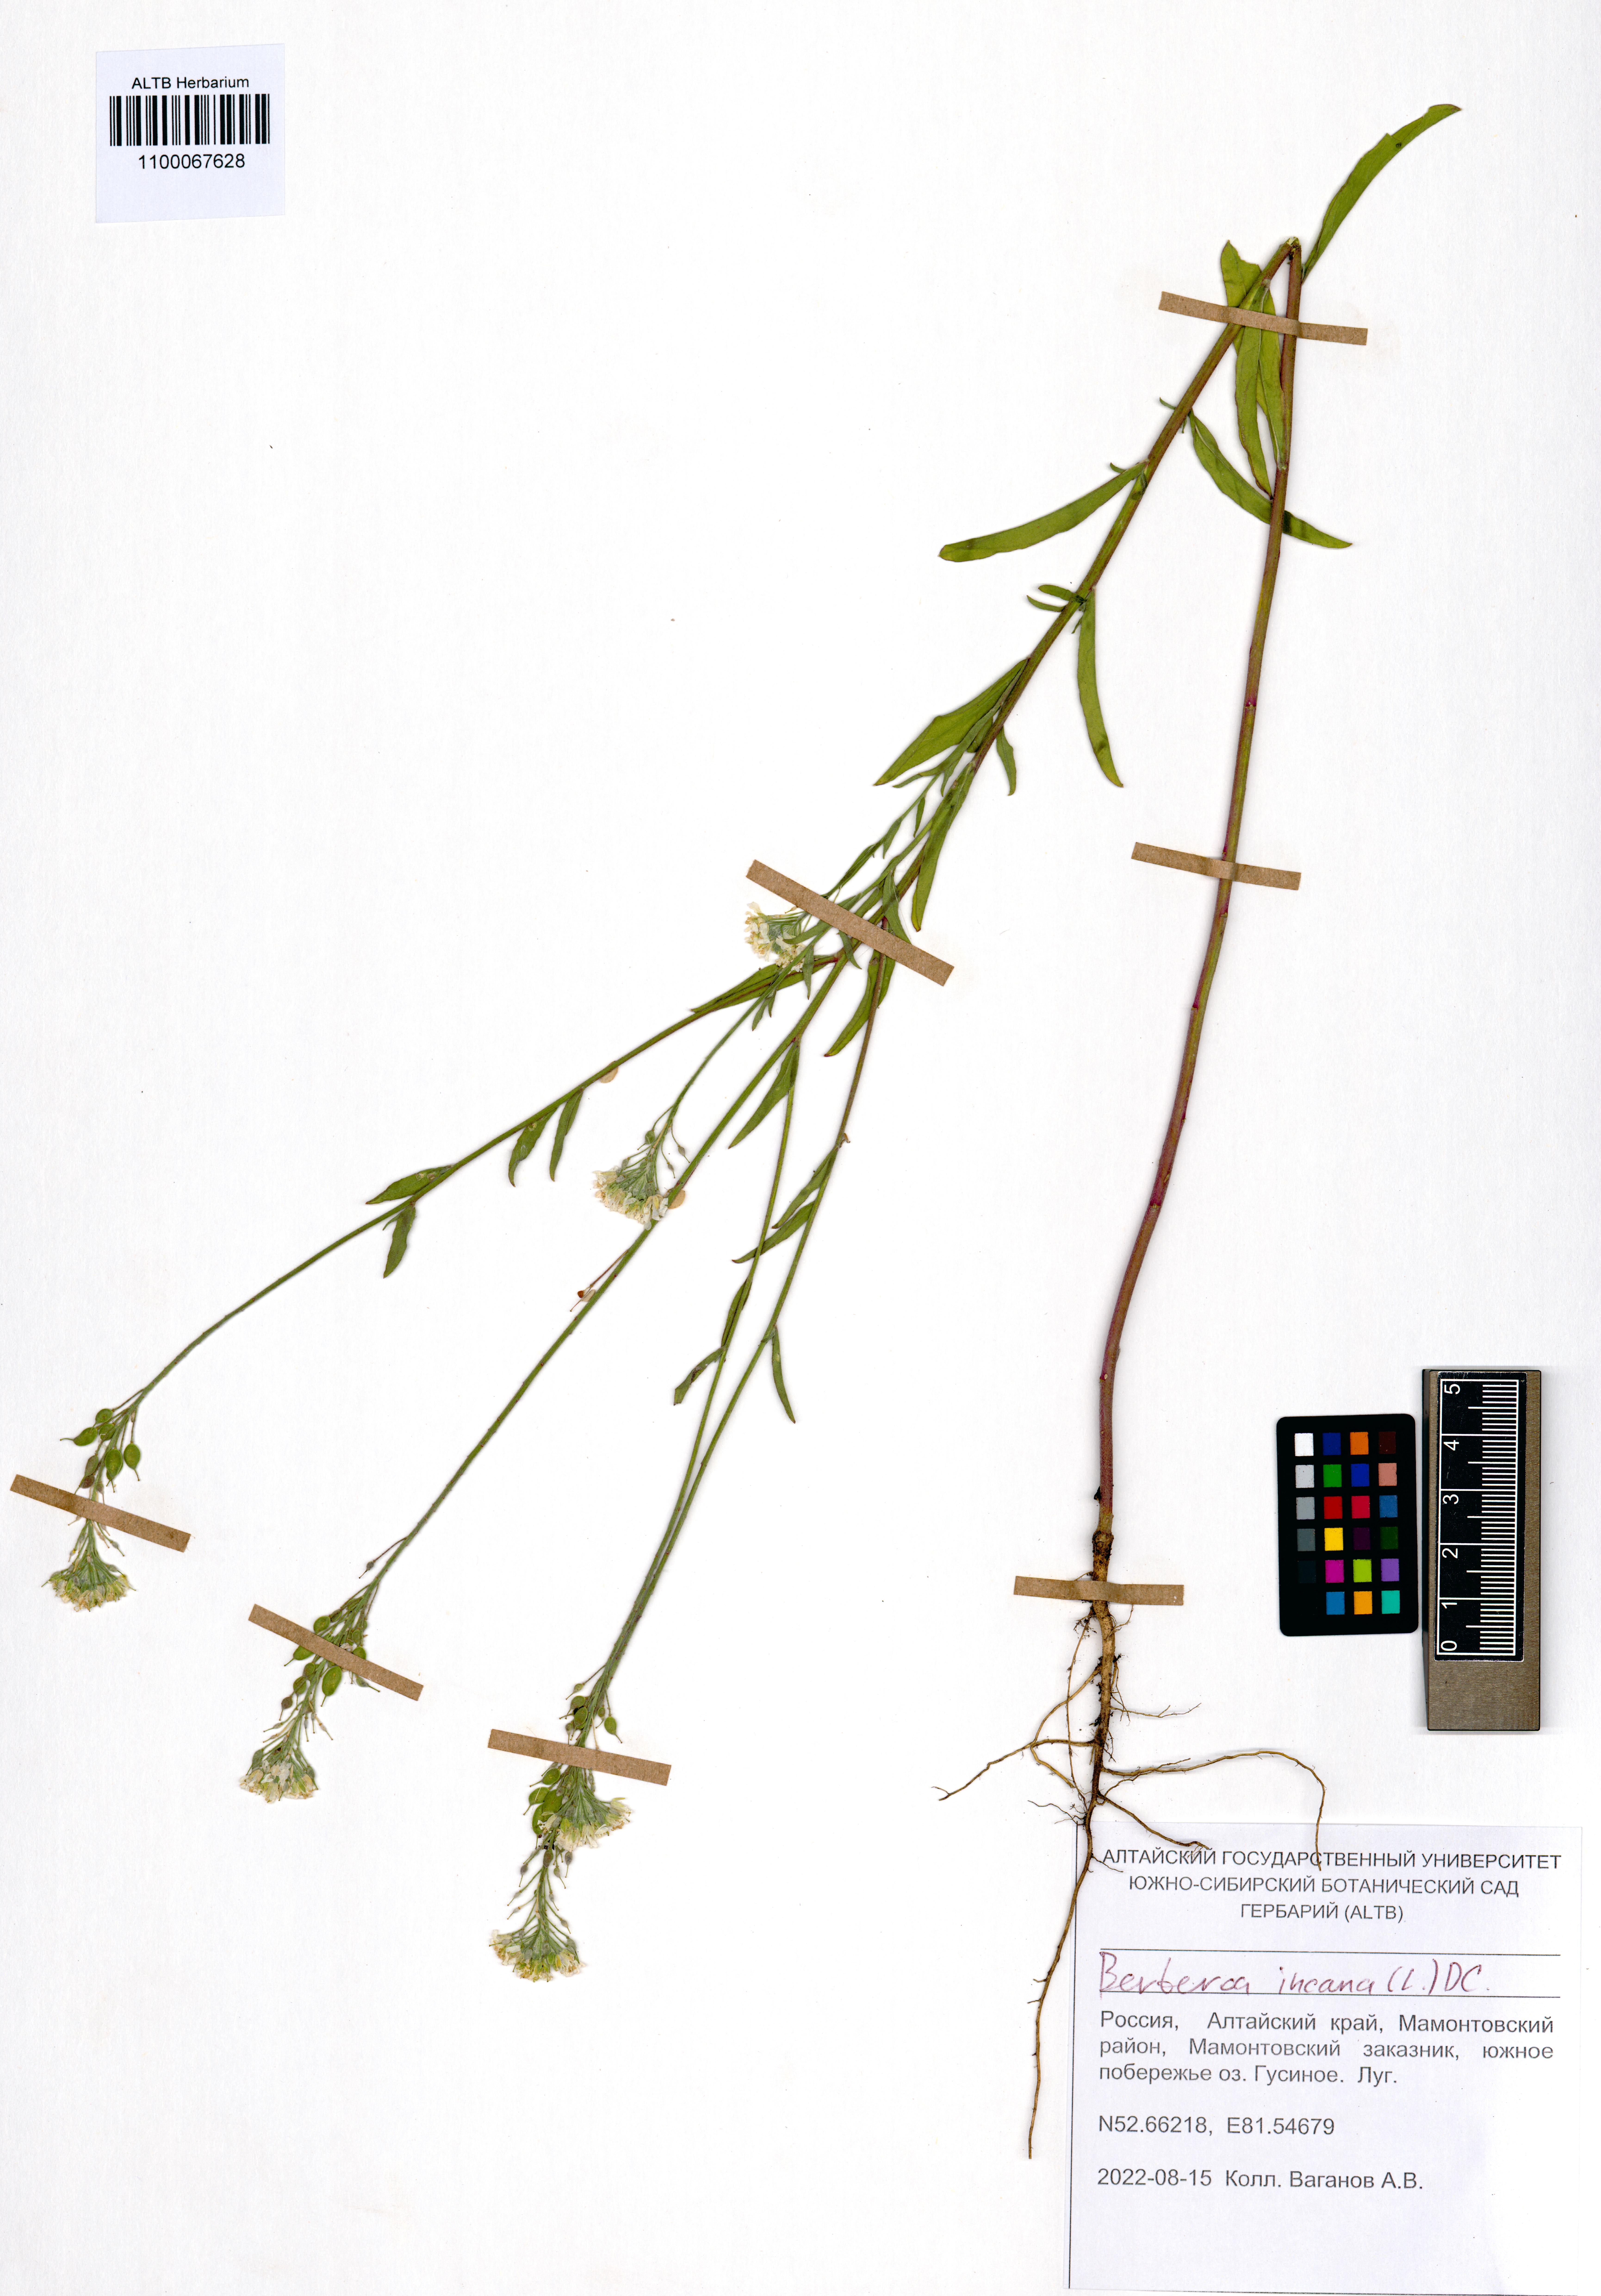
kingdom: Plantae
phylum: Tracheophyta
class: Magnoliopsida
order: Brassicales
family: Brassicaceae
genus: Berteroa
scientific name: Berteroa incana
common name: Hoary alison
